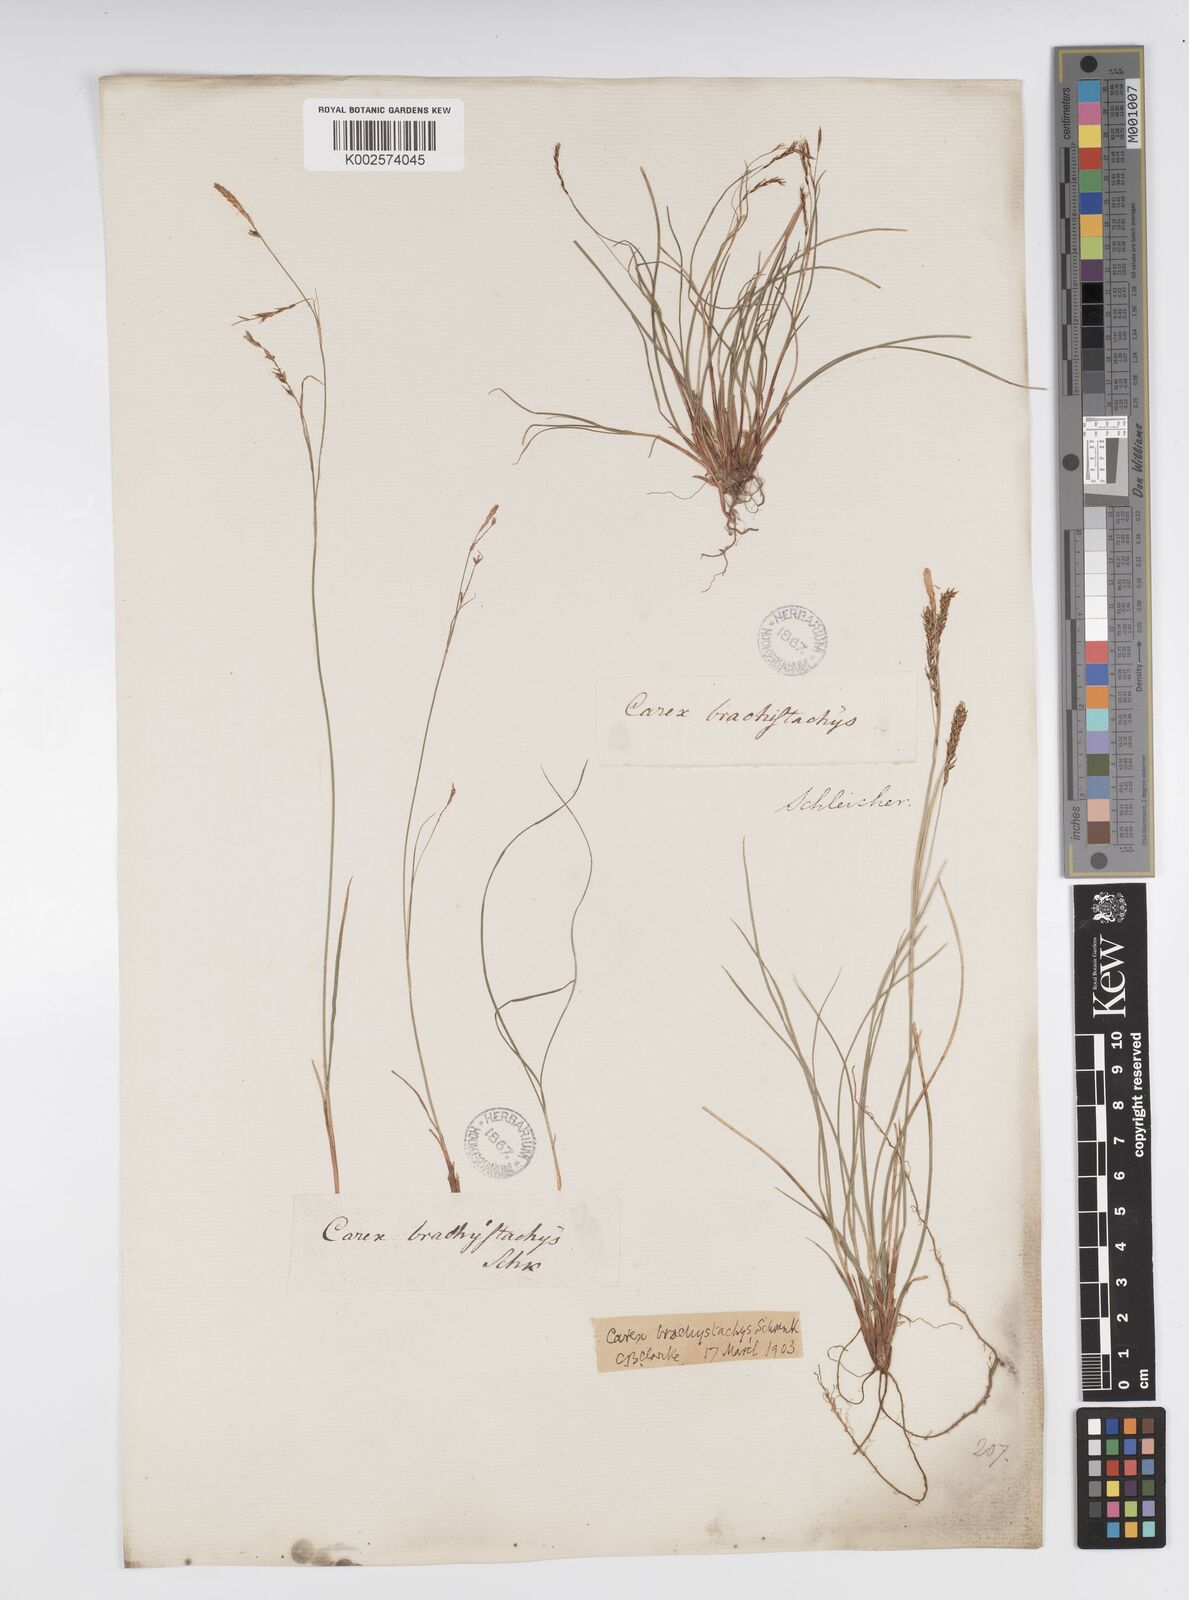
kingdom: Plantae
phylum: Tracheophyta
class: Liliopsida
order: Poales
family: Cyperaceae
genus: Carex
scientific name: Carex brachystachys
